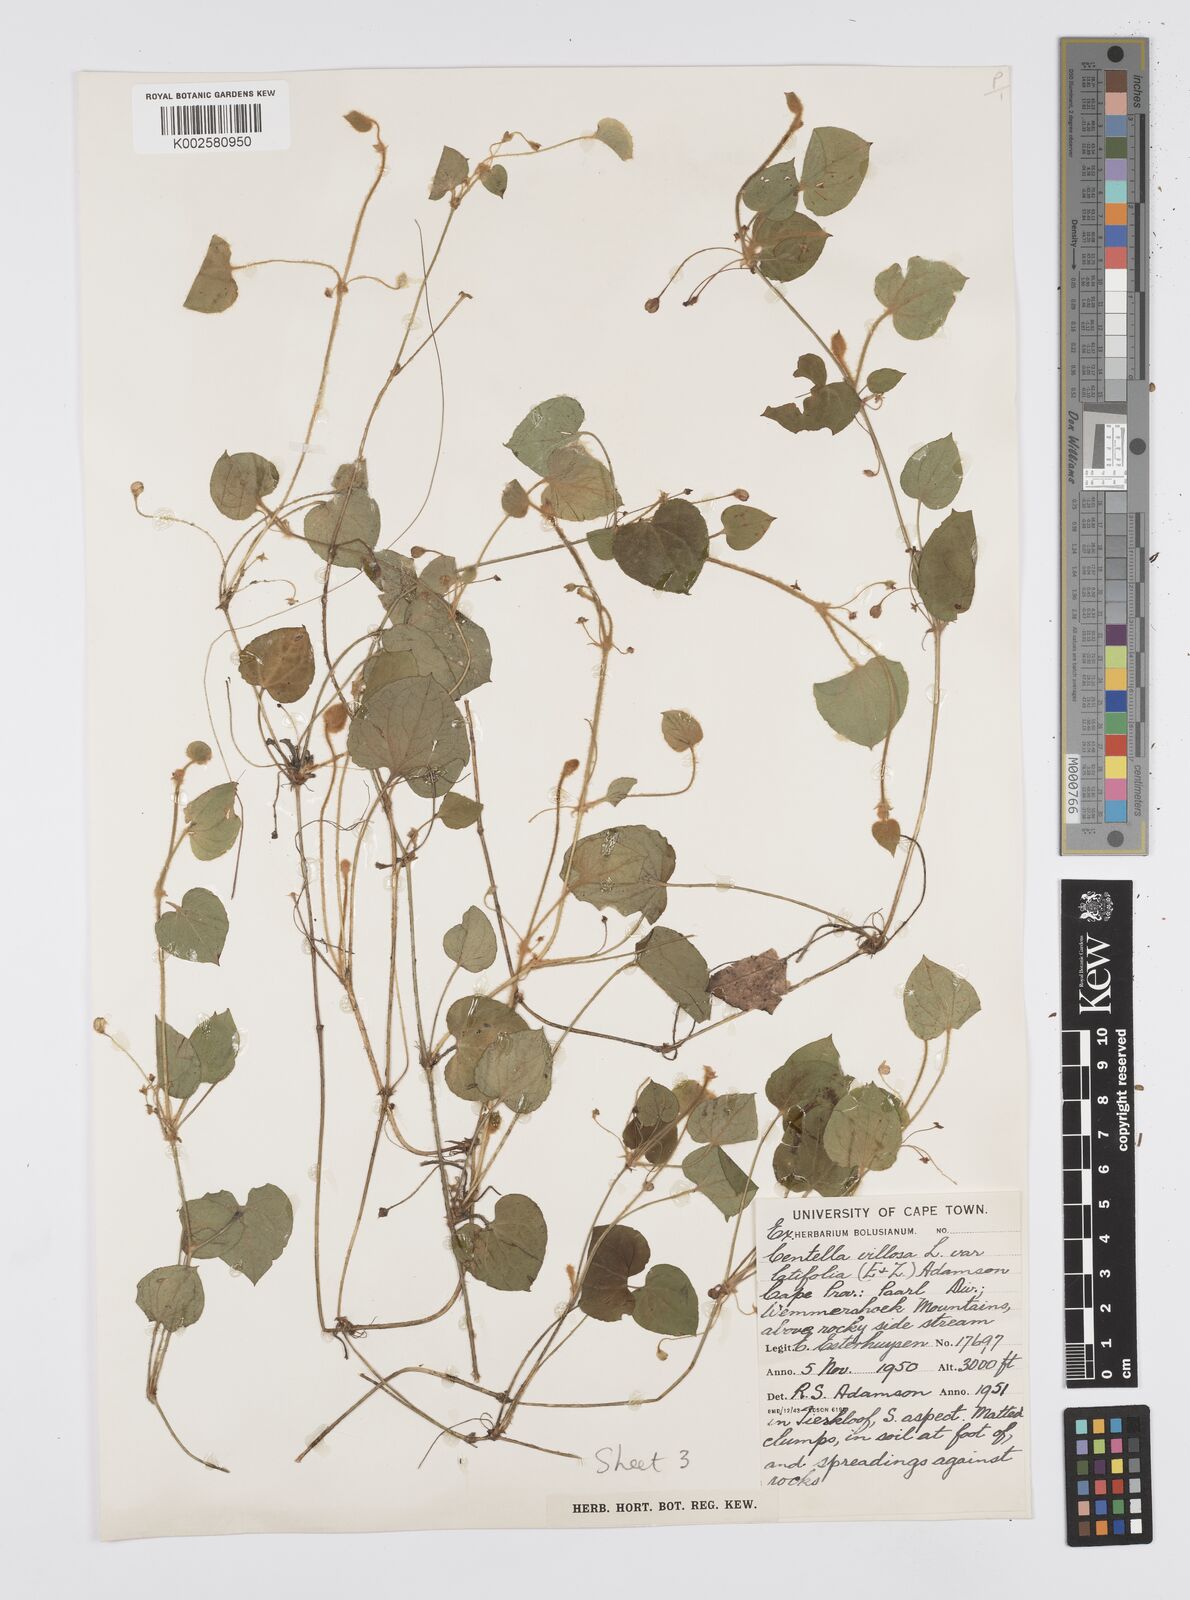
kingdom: Plantae
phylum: Tracheophyta
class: Magnoliopsida
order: Apiales
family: Apiaceae
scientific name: Apiaceae
